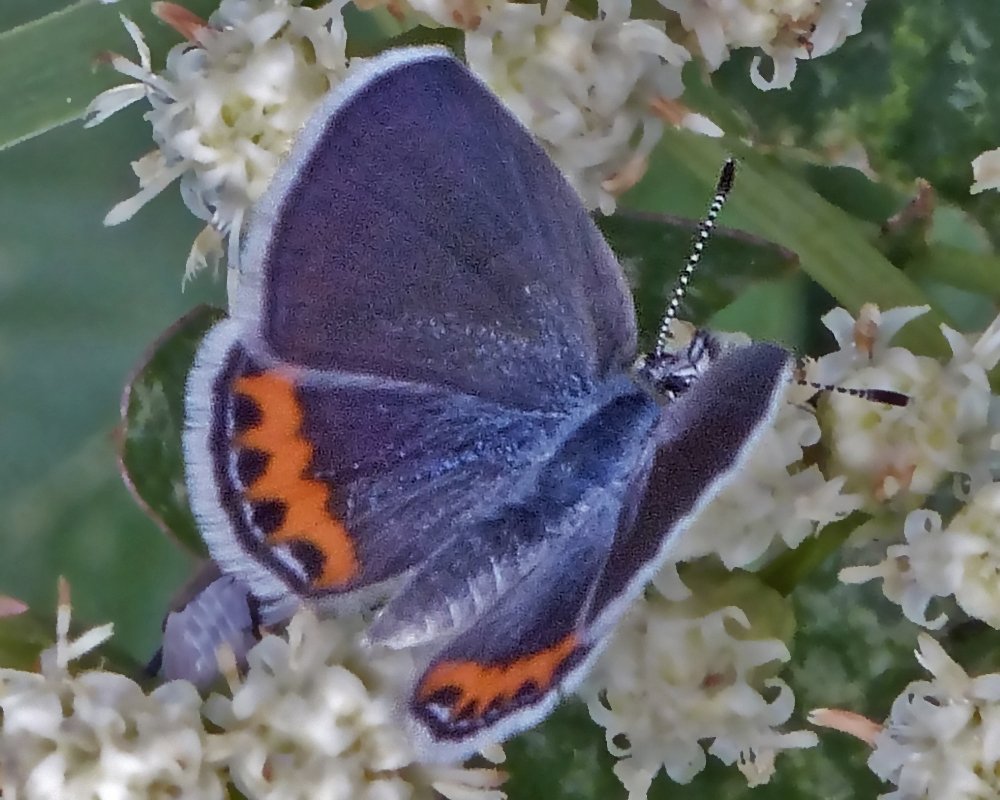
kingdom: Animalia
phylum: Arthropoda
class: Insecta
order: Lepidoptera
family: Lycaenidae
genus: Plebejus
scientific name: Plebejus lupini
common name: Lupine Blue
